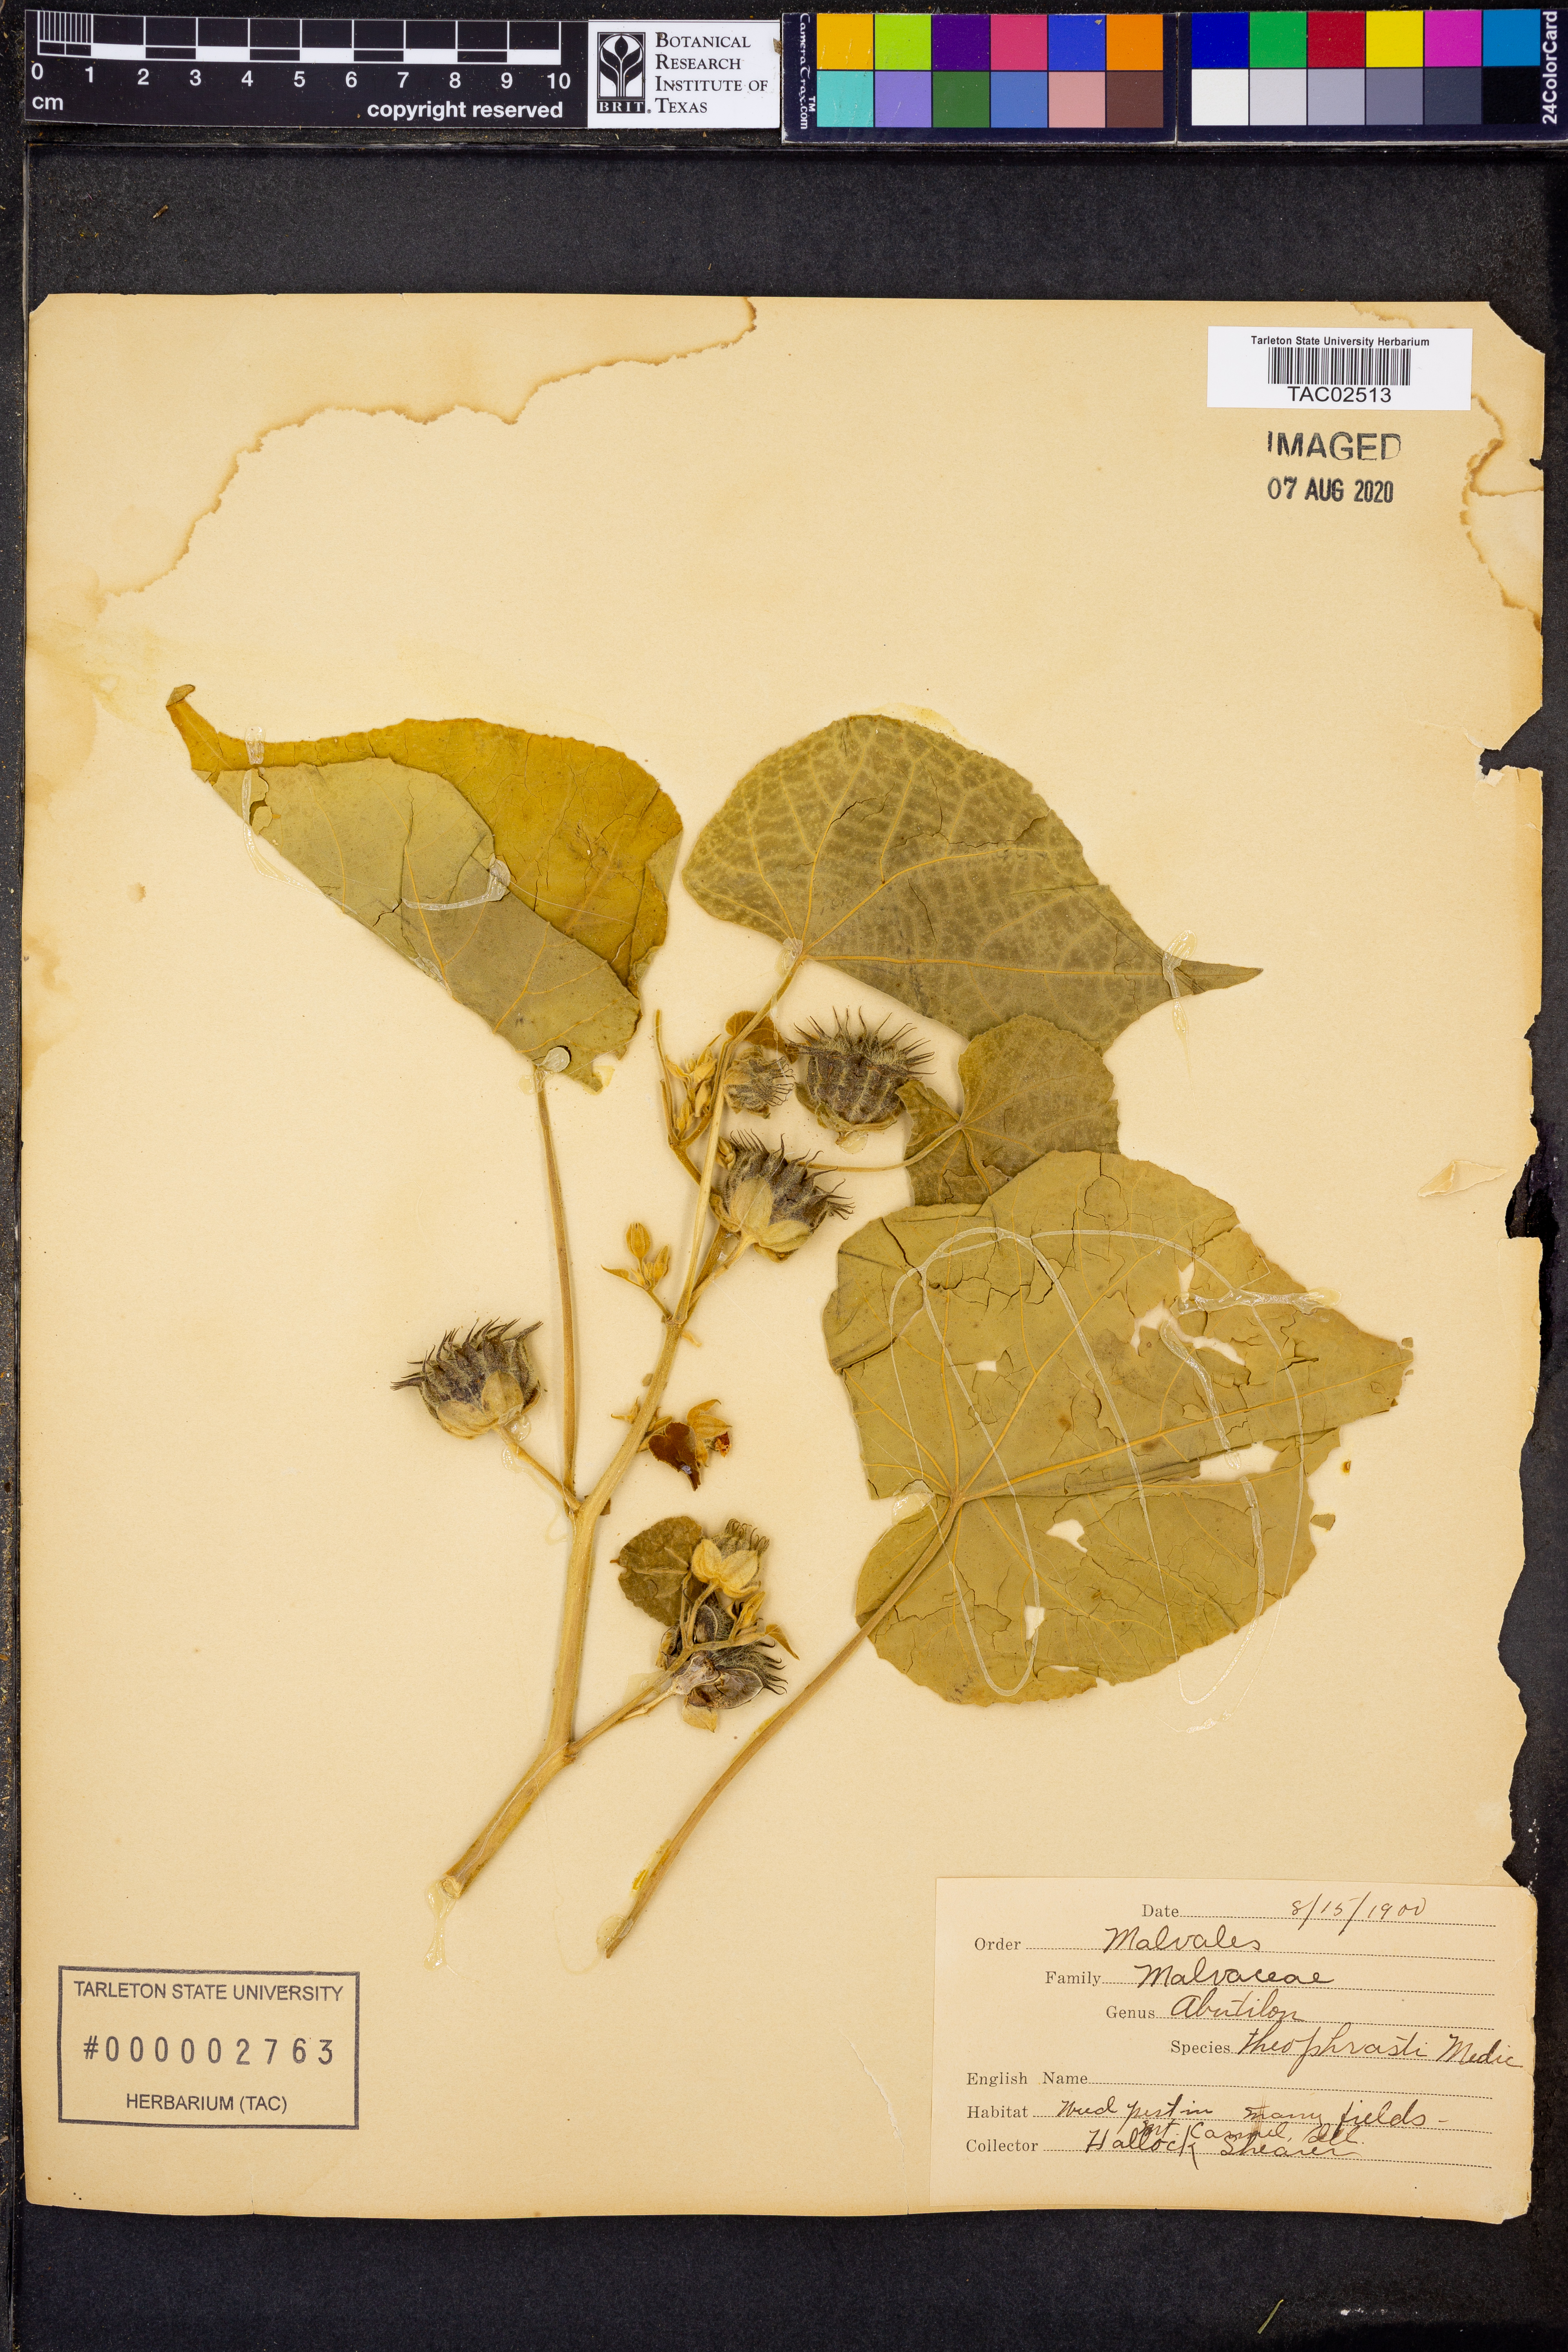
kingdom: Plantae
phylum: Tracheophyta
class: Magnoliopsida
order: Malvales
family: Malvaceae
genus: Abutilon
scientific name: Abutilon theophrasti
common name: Velvetleaf
